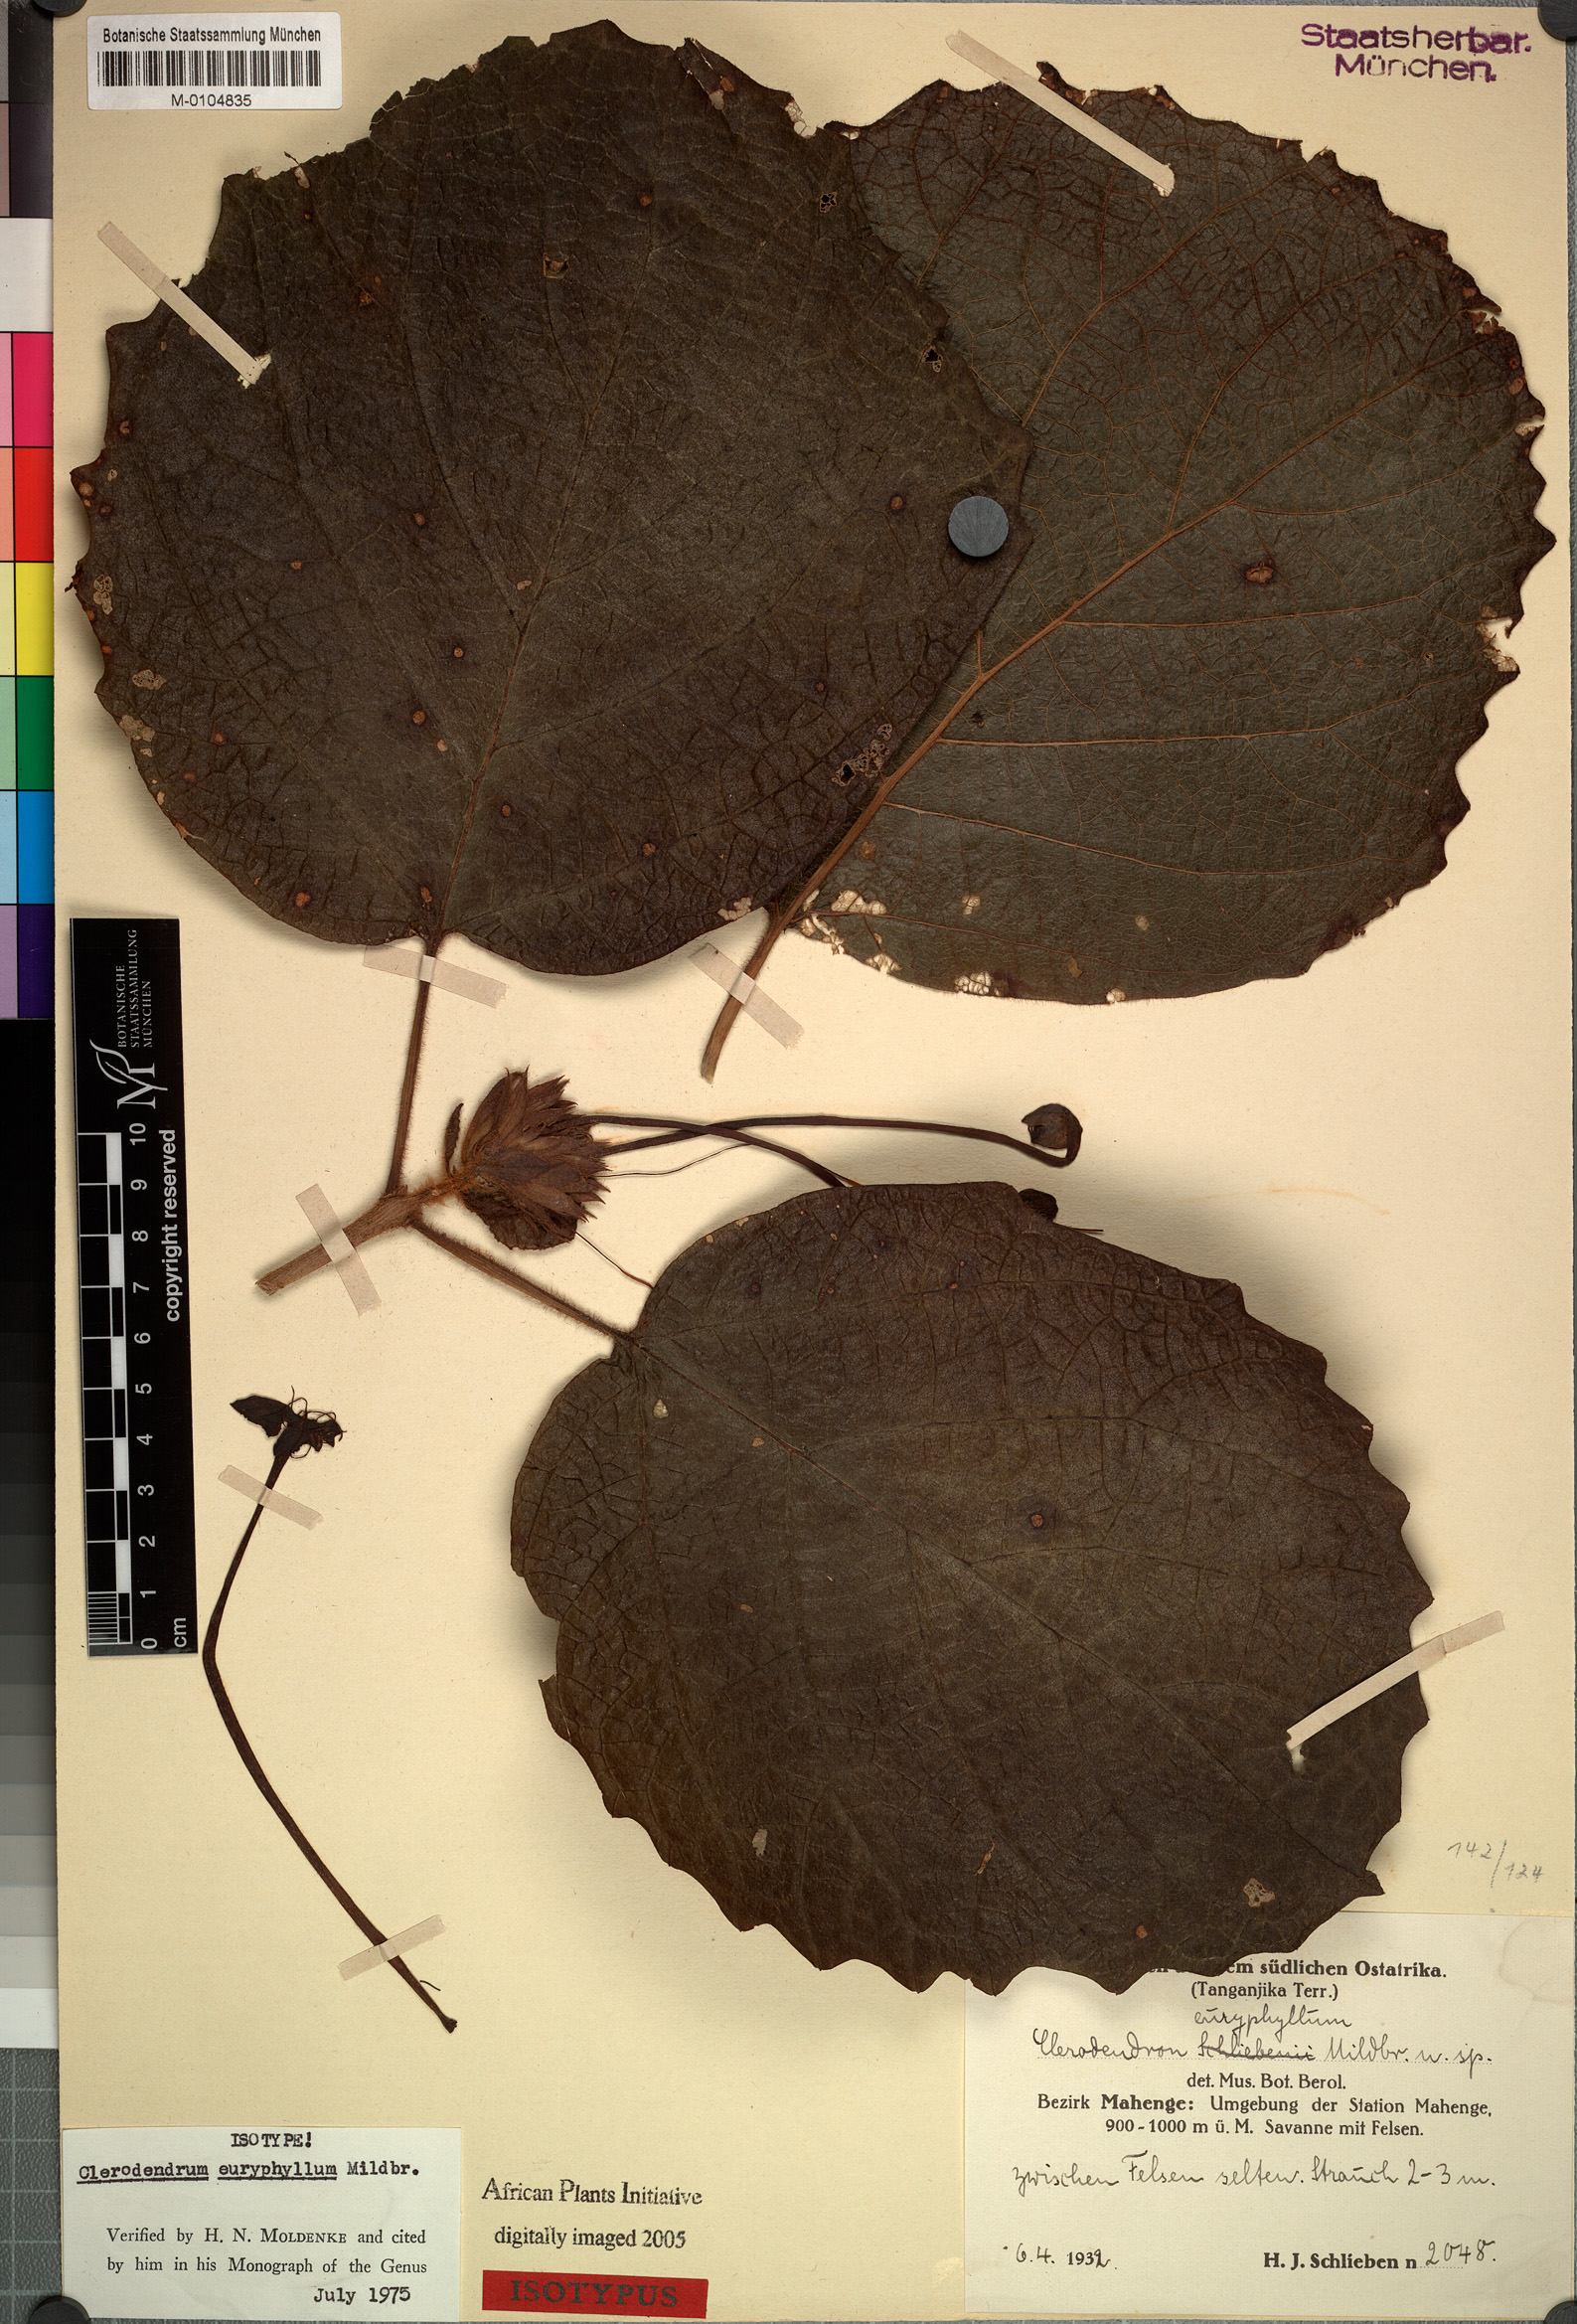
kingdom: Plantae
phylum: Tracheophyta
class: Magnoliopsida
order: Lamiales
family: Lamiaceae
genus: Clerodendrum
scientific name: Clerodendrum poggei
